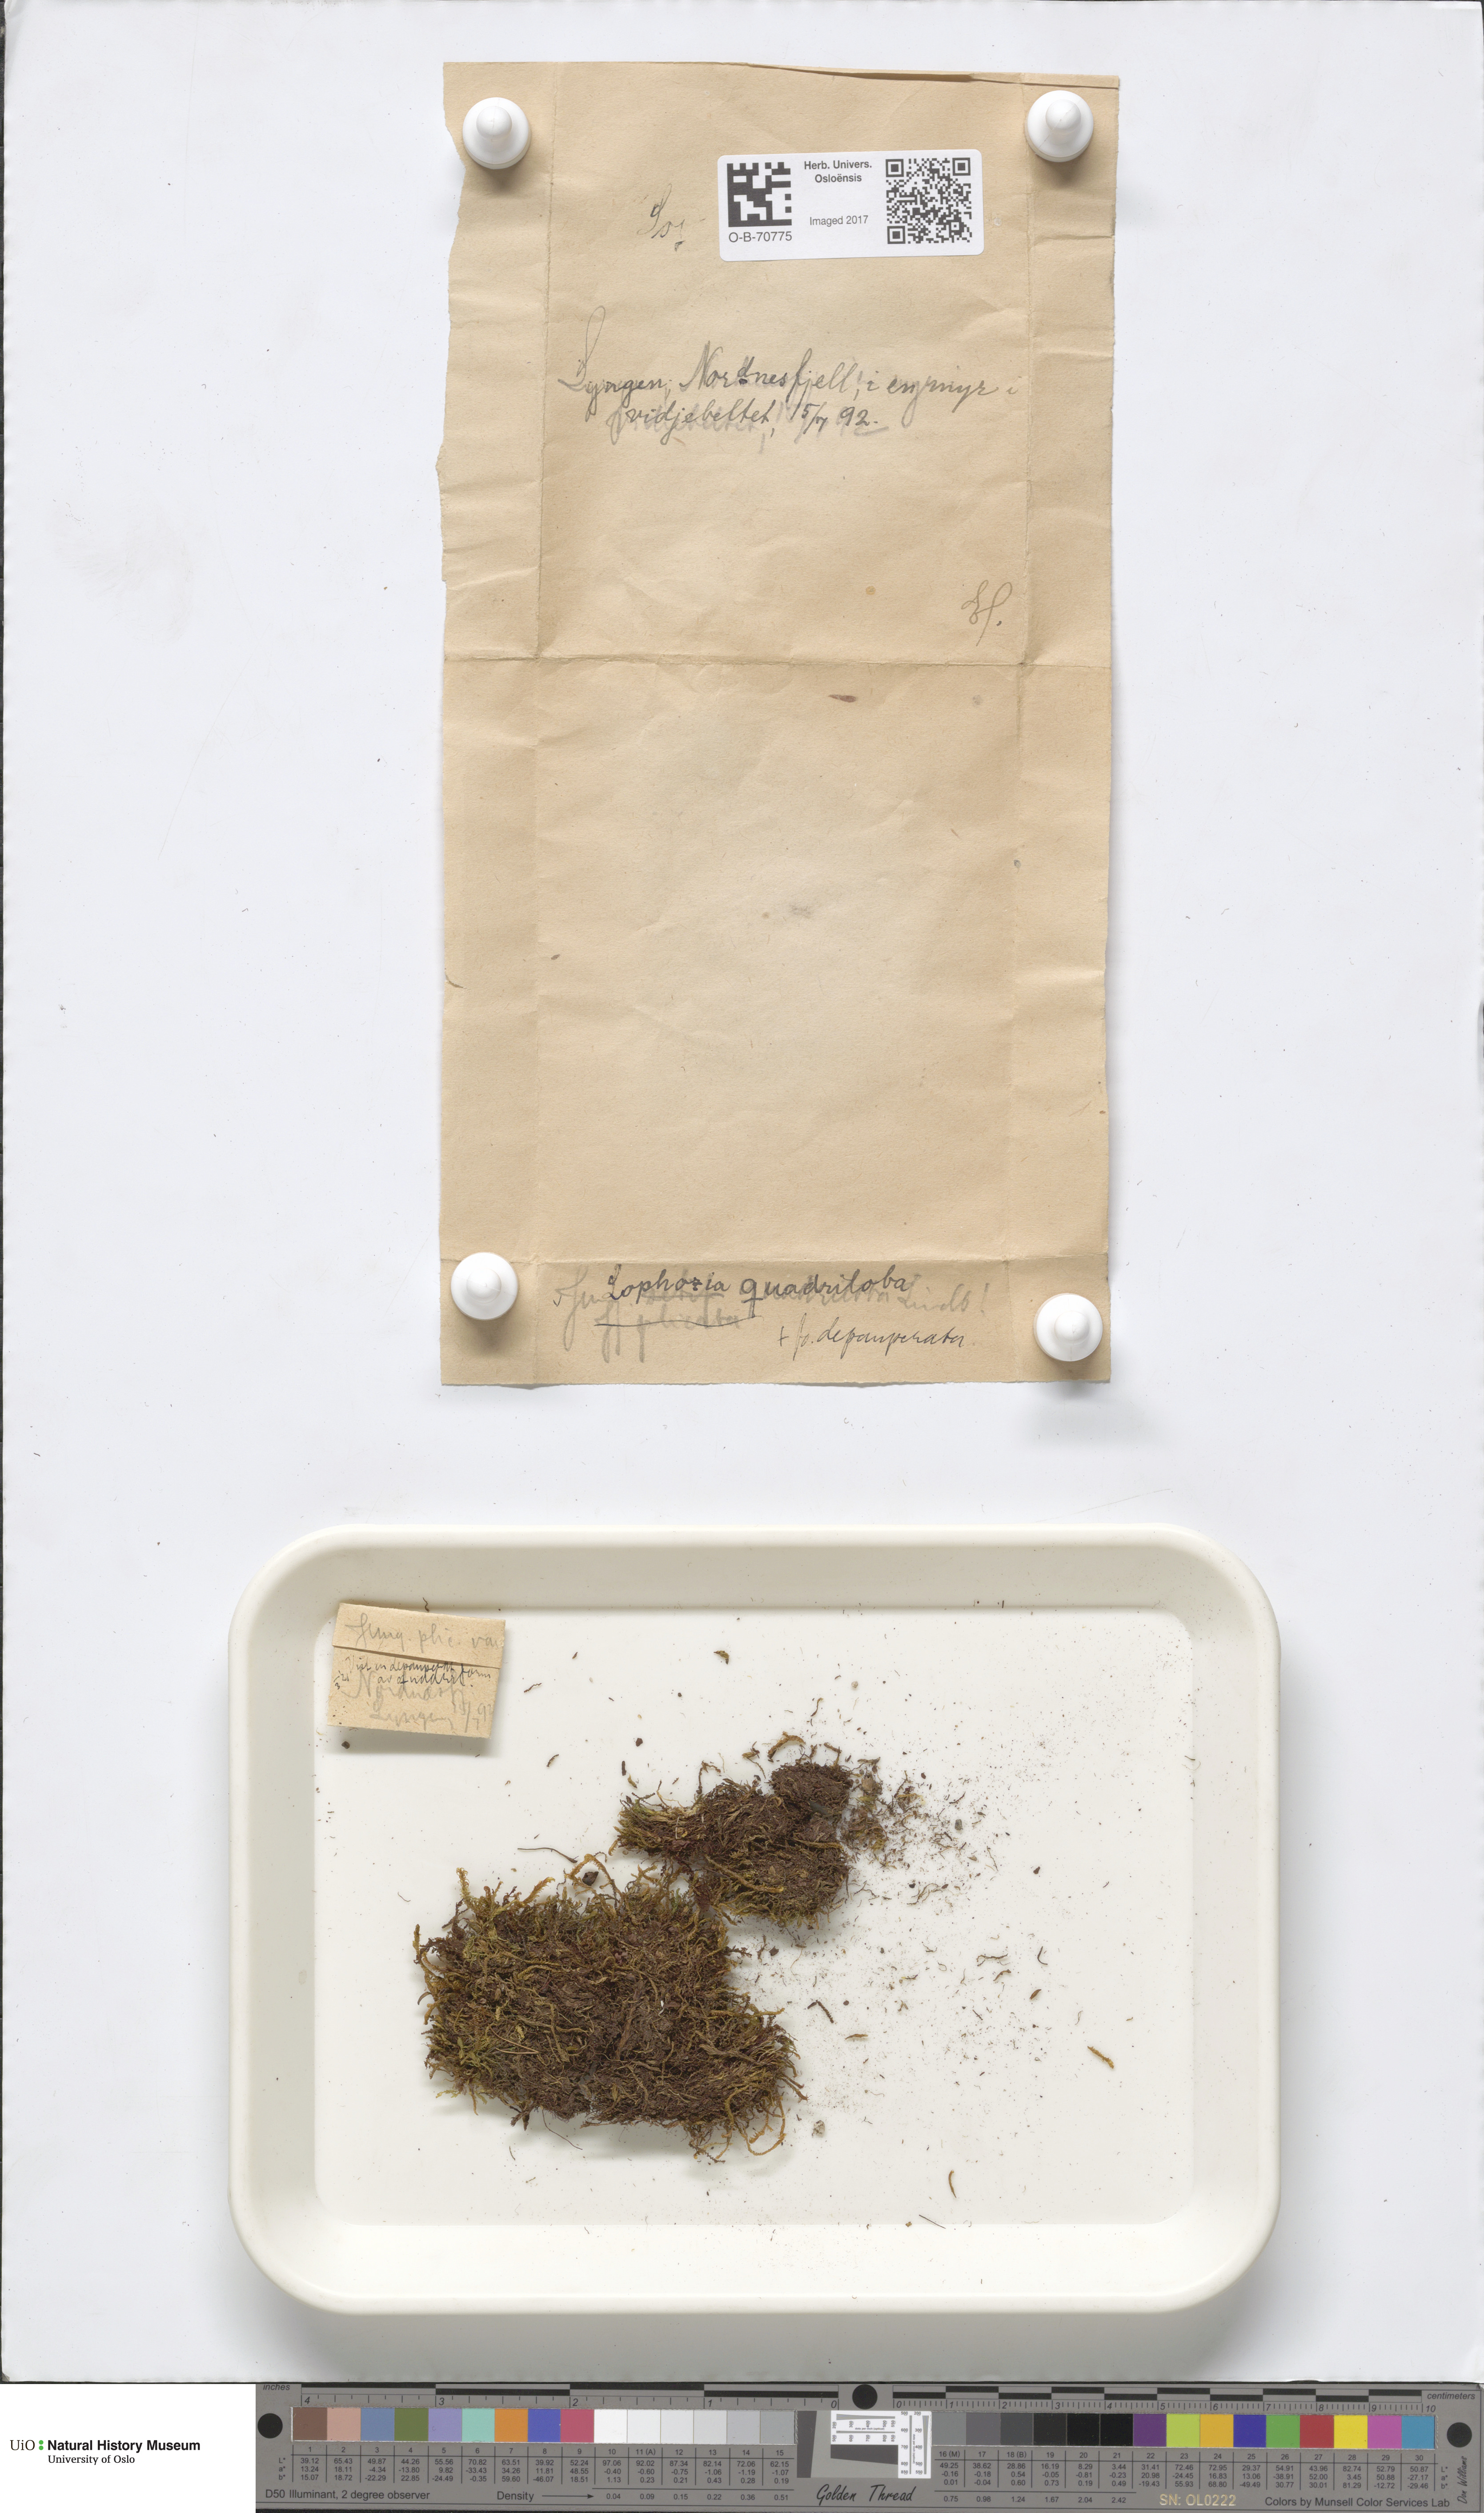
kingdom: Plantae
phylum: Marchantiophyta
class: Jungermanniopsida
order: Jungermanniales
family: Anastrophyllaceae
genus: Schljakovianthus
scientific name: Schljakovianthus quadrilobus
